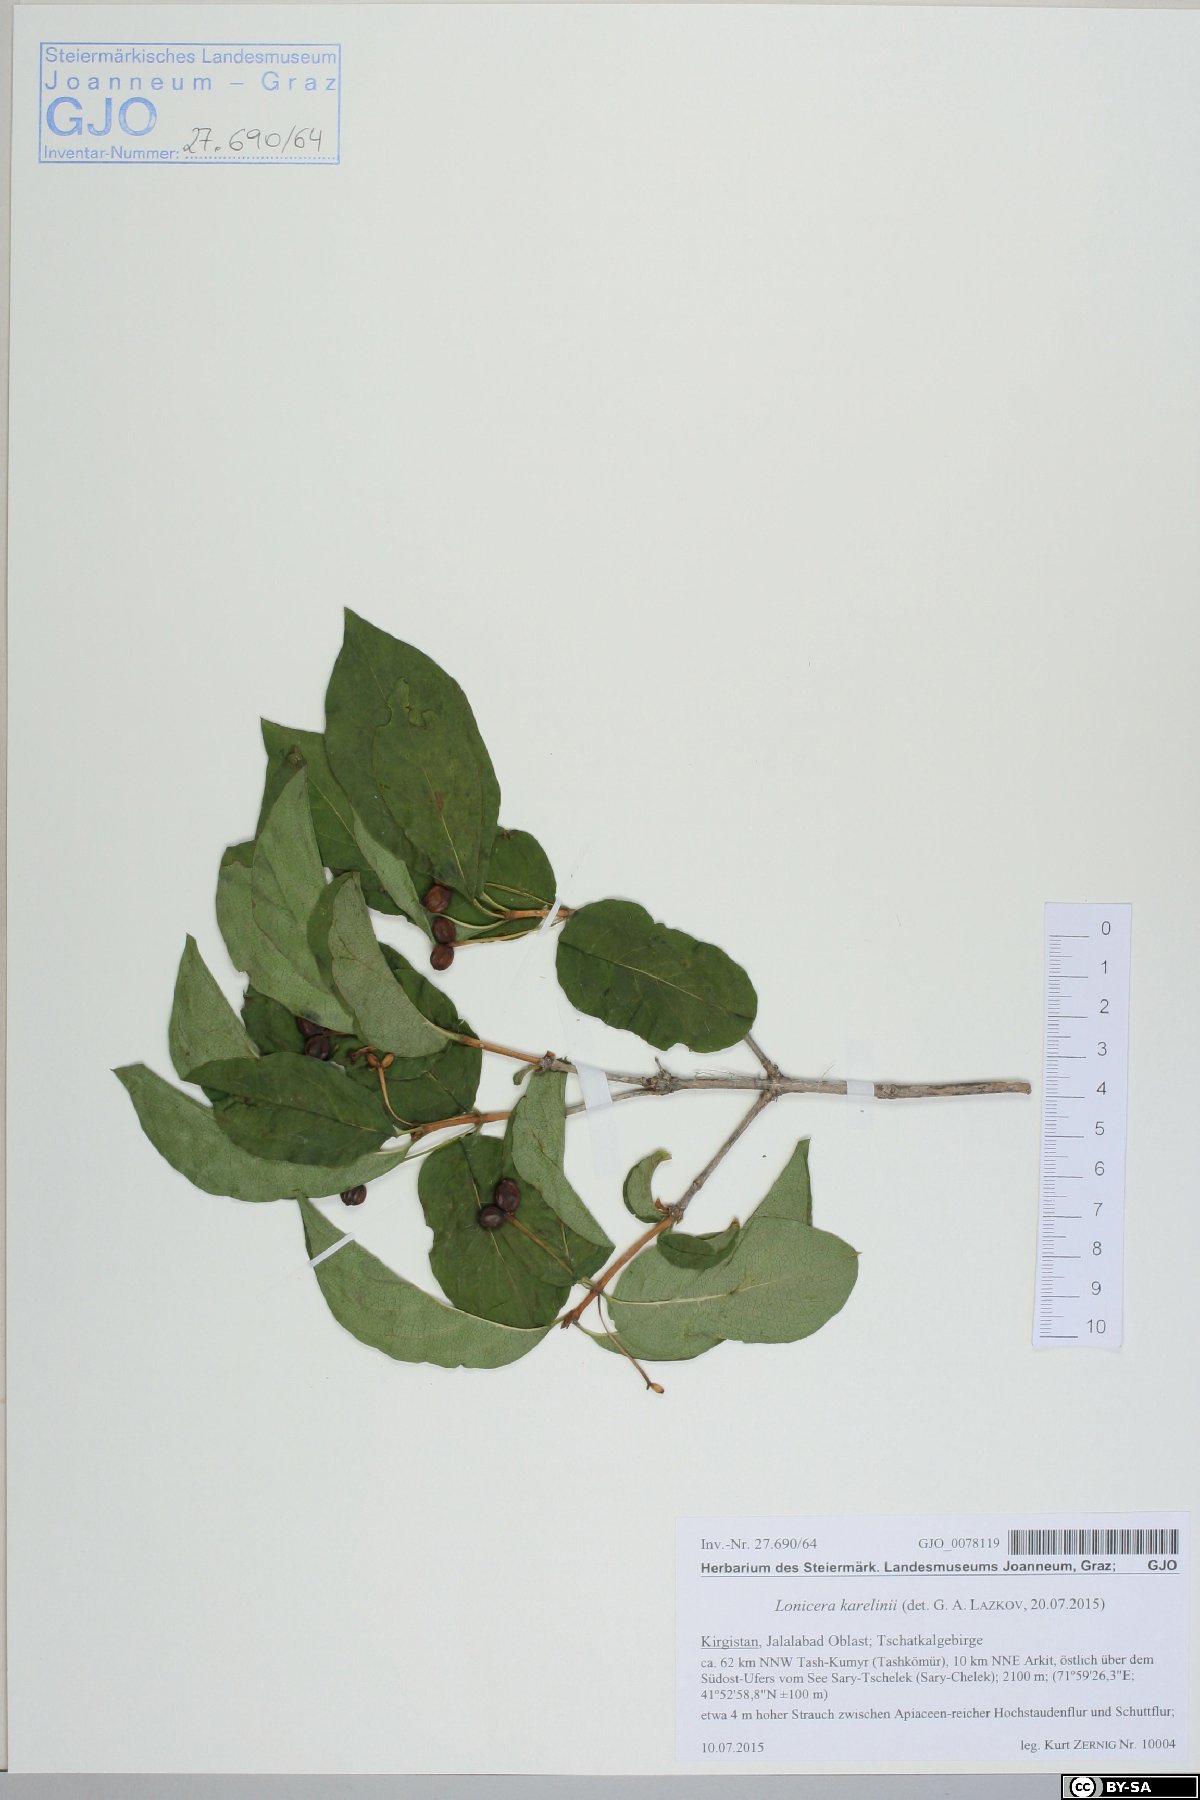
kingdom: Plantae
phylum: Tracheophyta
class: Magnoliopsida
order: Dipsacales
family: Caprifoliaceae
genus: Lonicera
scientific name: Lonicera heterophylla
